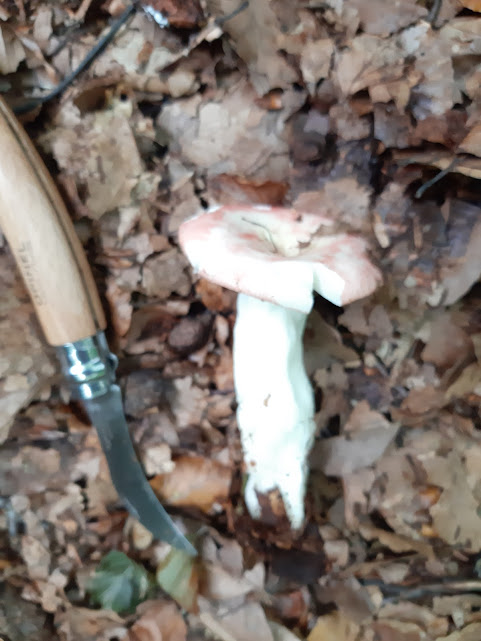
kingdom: Fungi
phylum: Basidiomycota
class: Agaricomycetes
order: Russulales
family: Russulaceae
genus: Russula
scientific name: Russula
